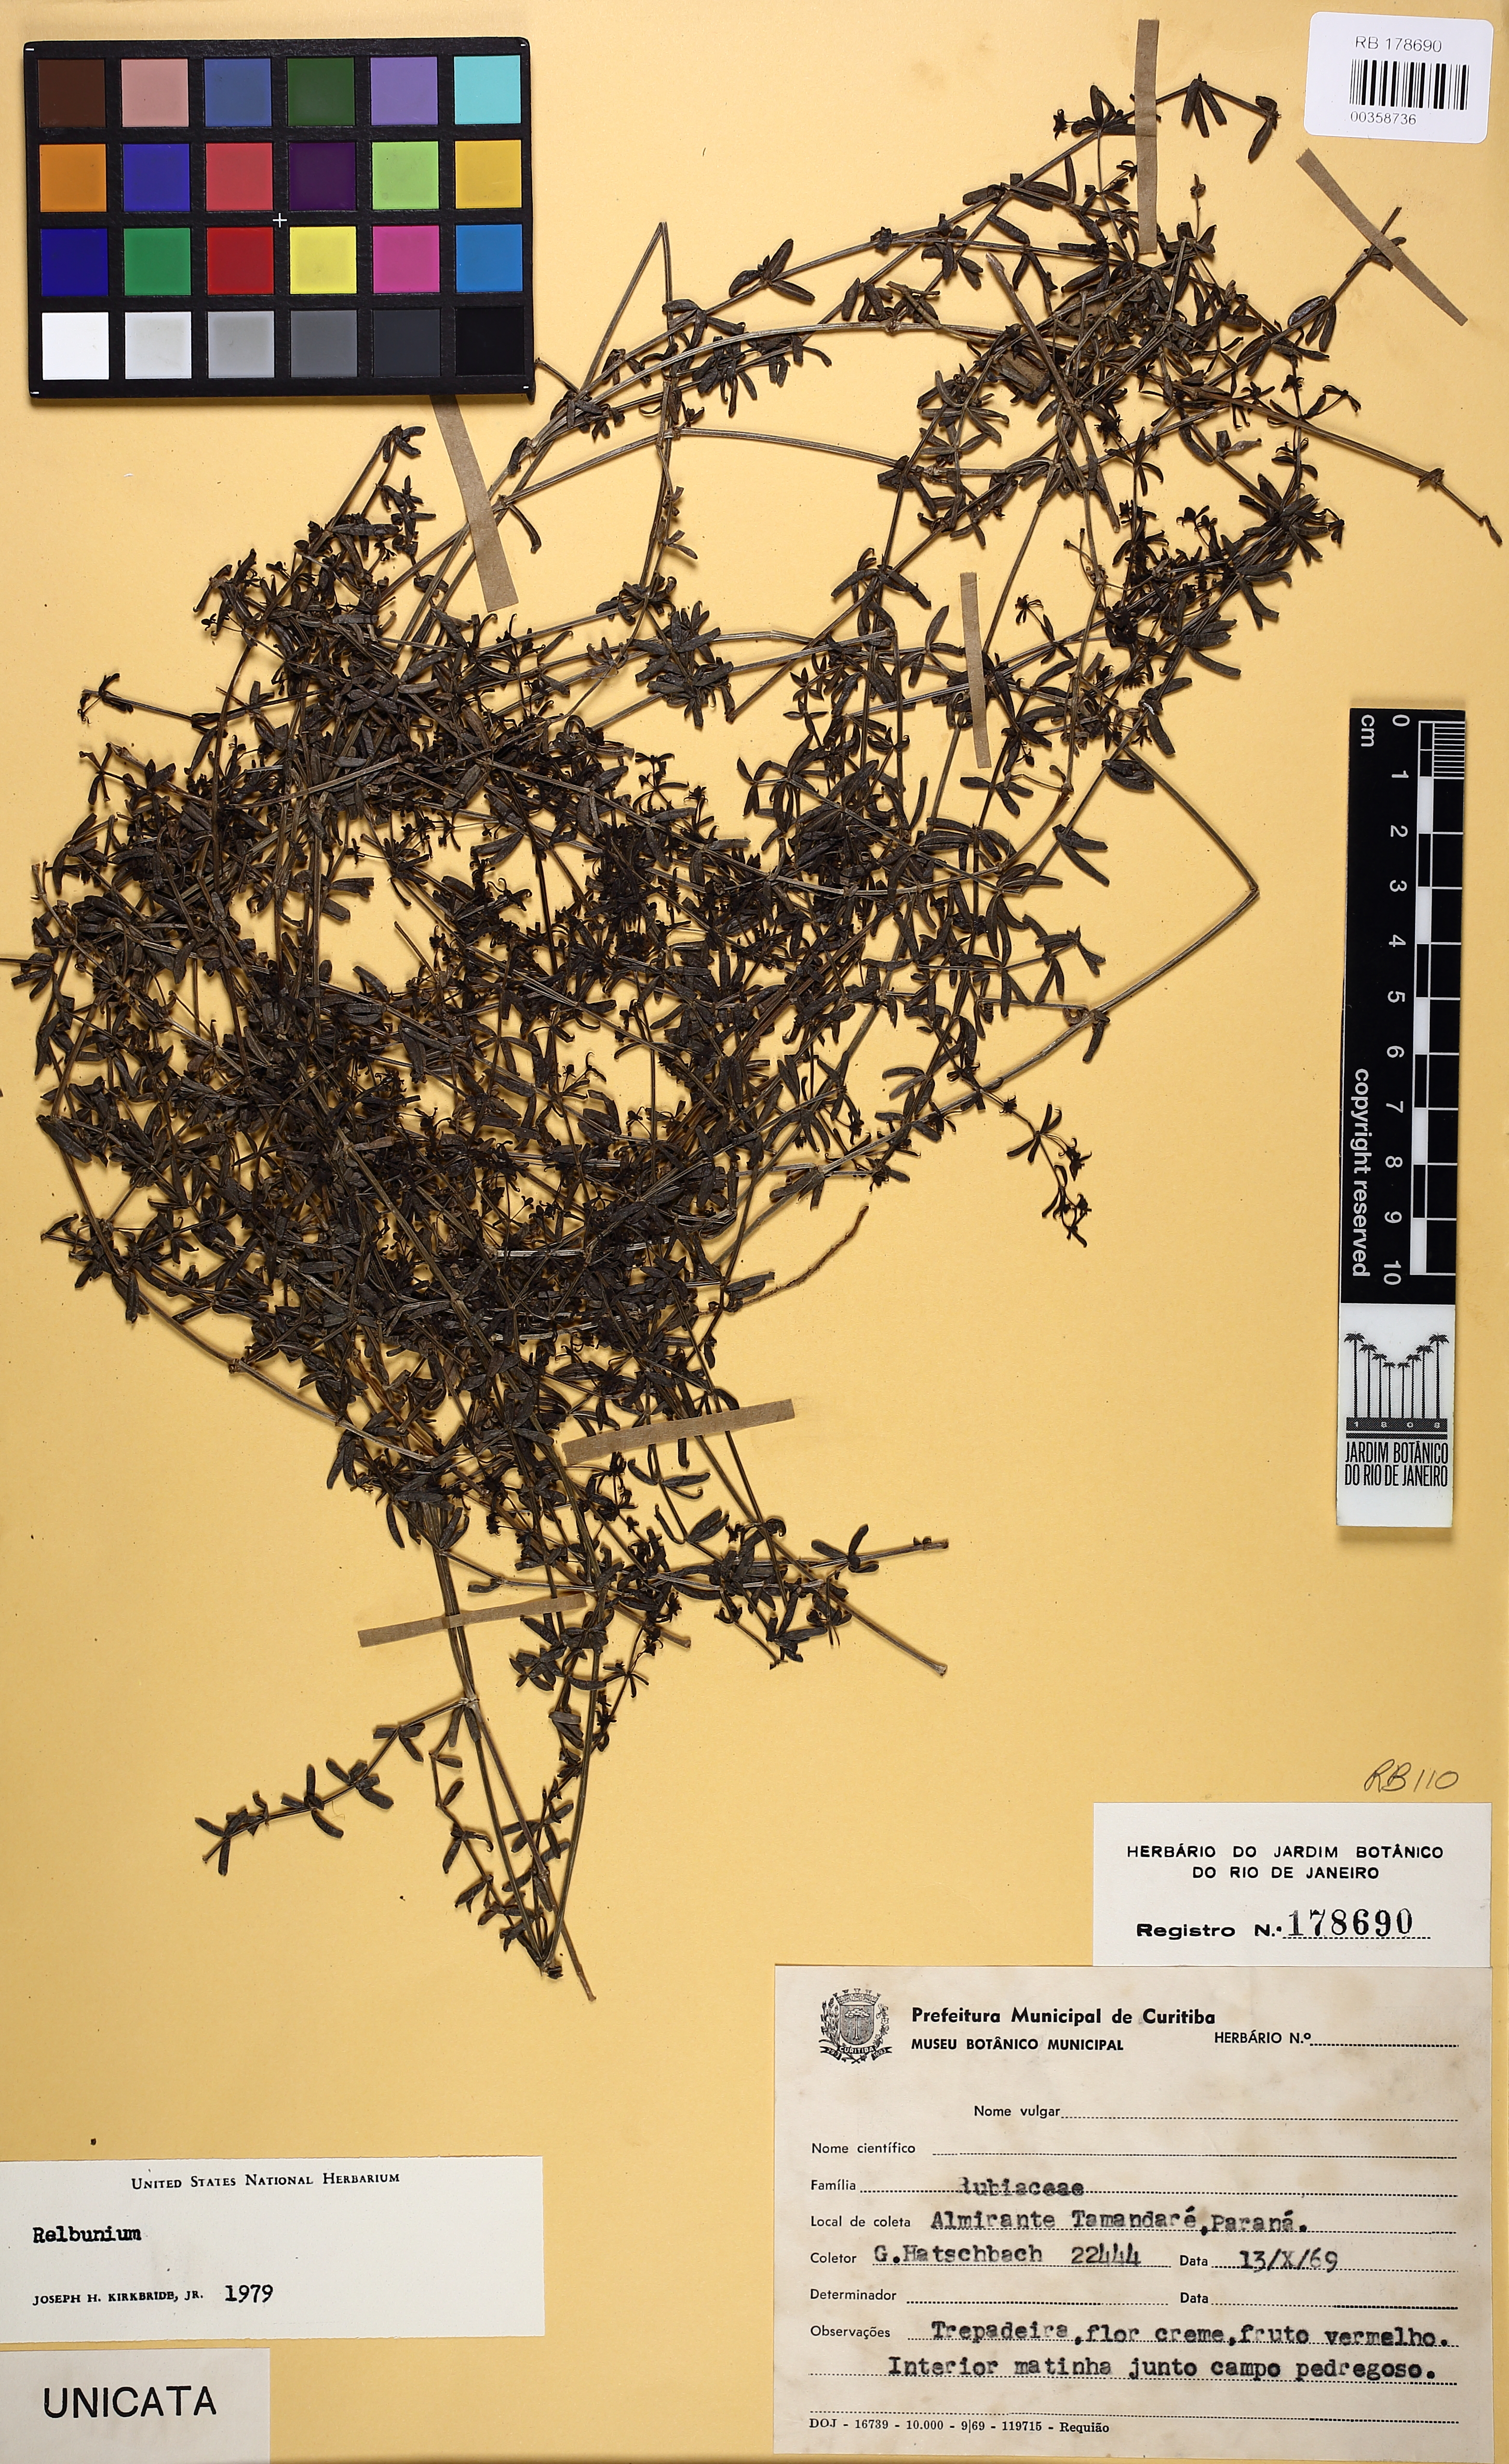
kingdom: Plantae
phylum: Tracheophyta
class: Magnoliopsida
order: Gentianales
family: Rubiaceae
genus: Galium
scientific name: Galium hypocarpium
